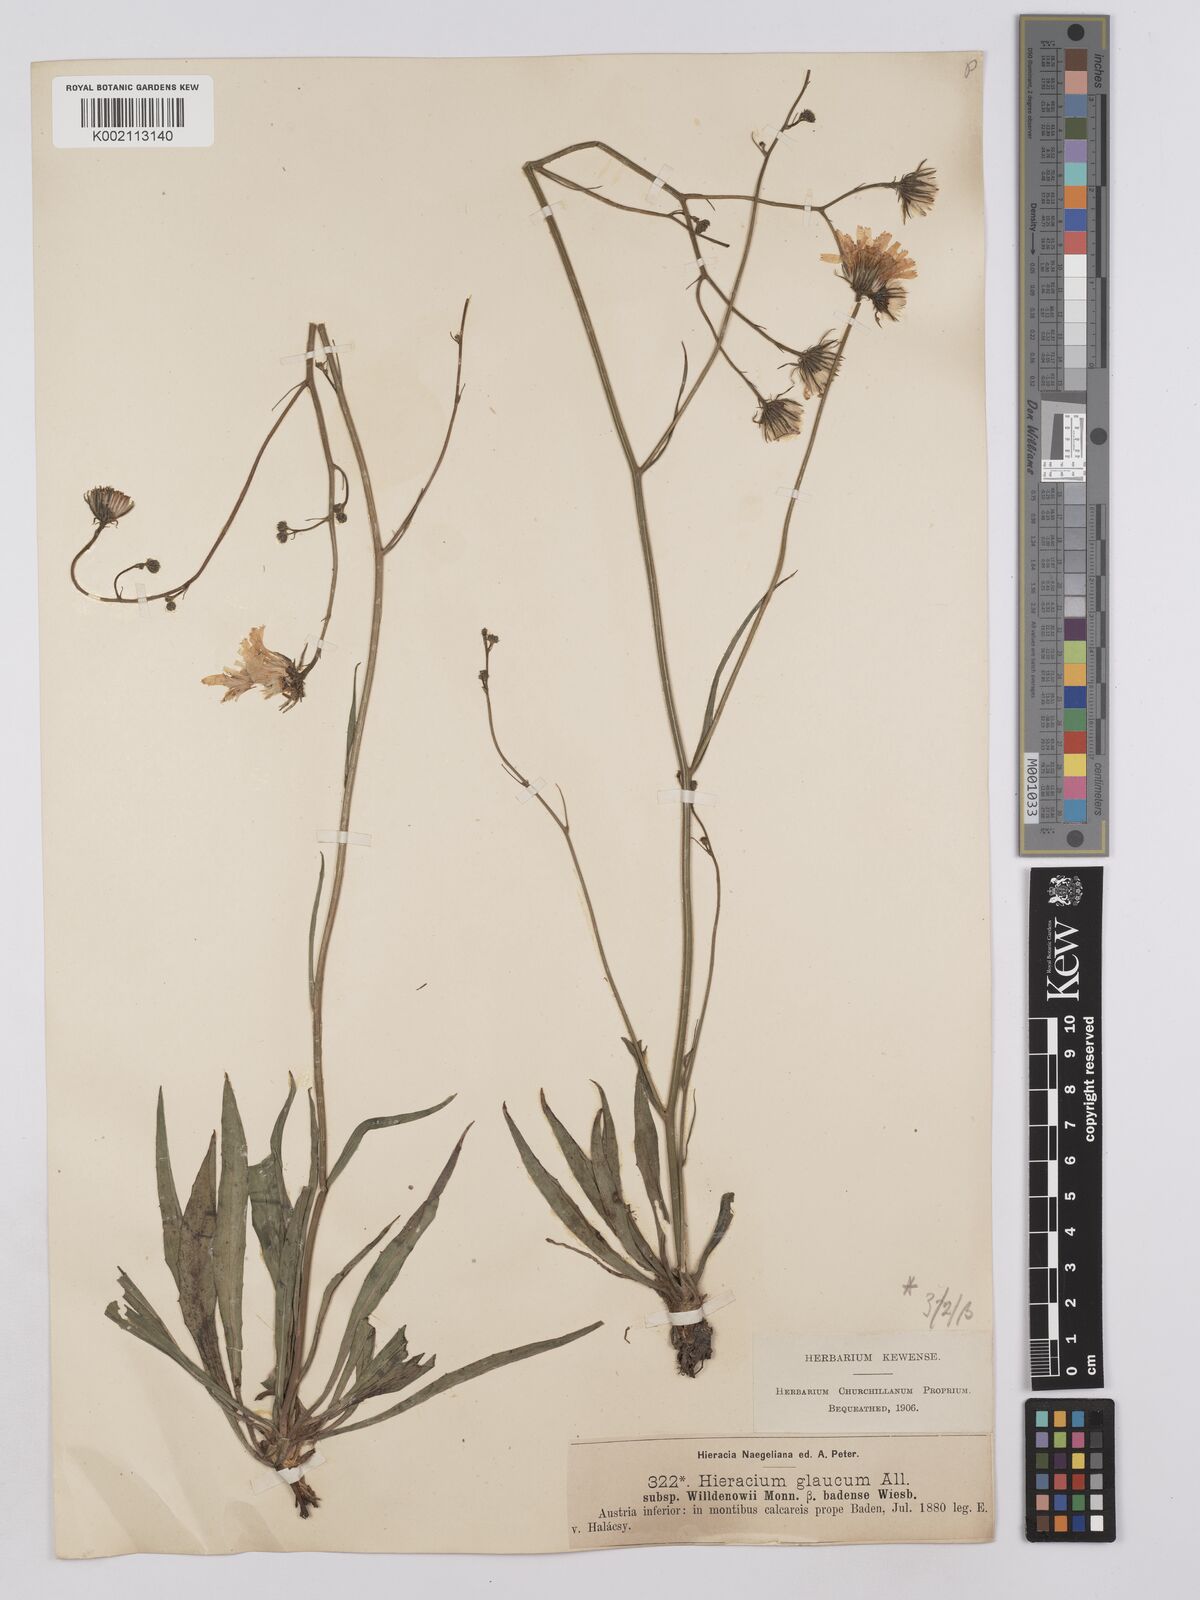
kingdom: Plantae
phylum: Tracheophyta
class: Magnoliopsida
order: Asterales
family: Asteraceae
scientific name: Asteraceae
